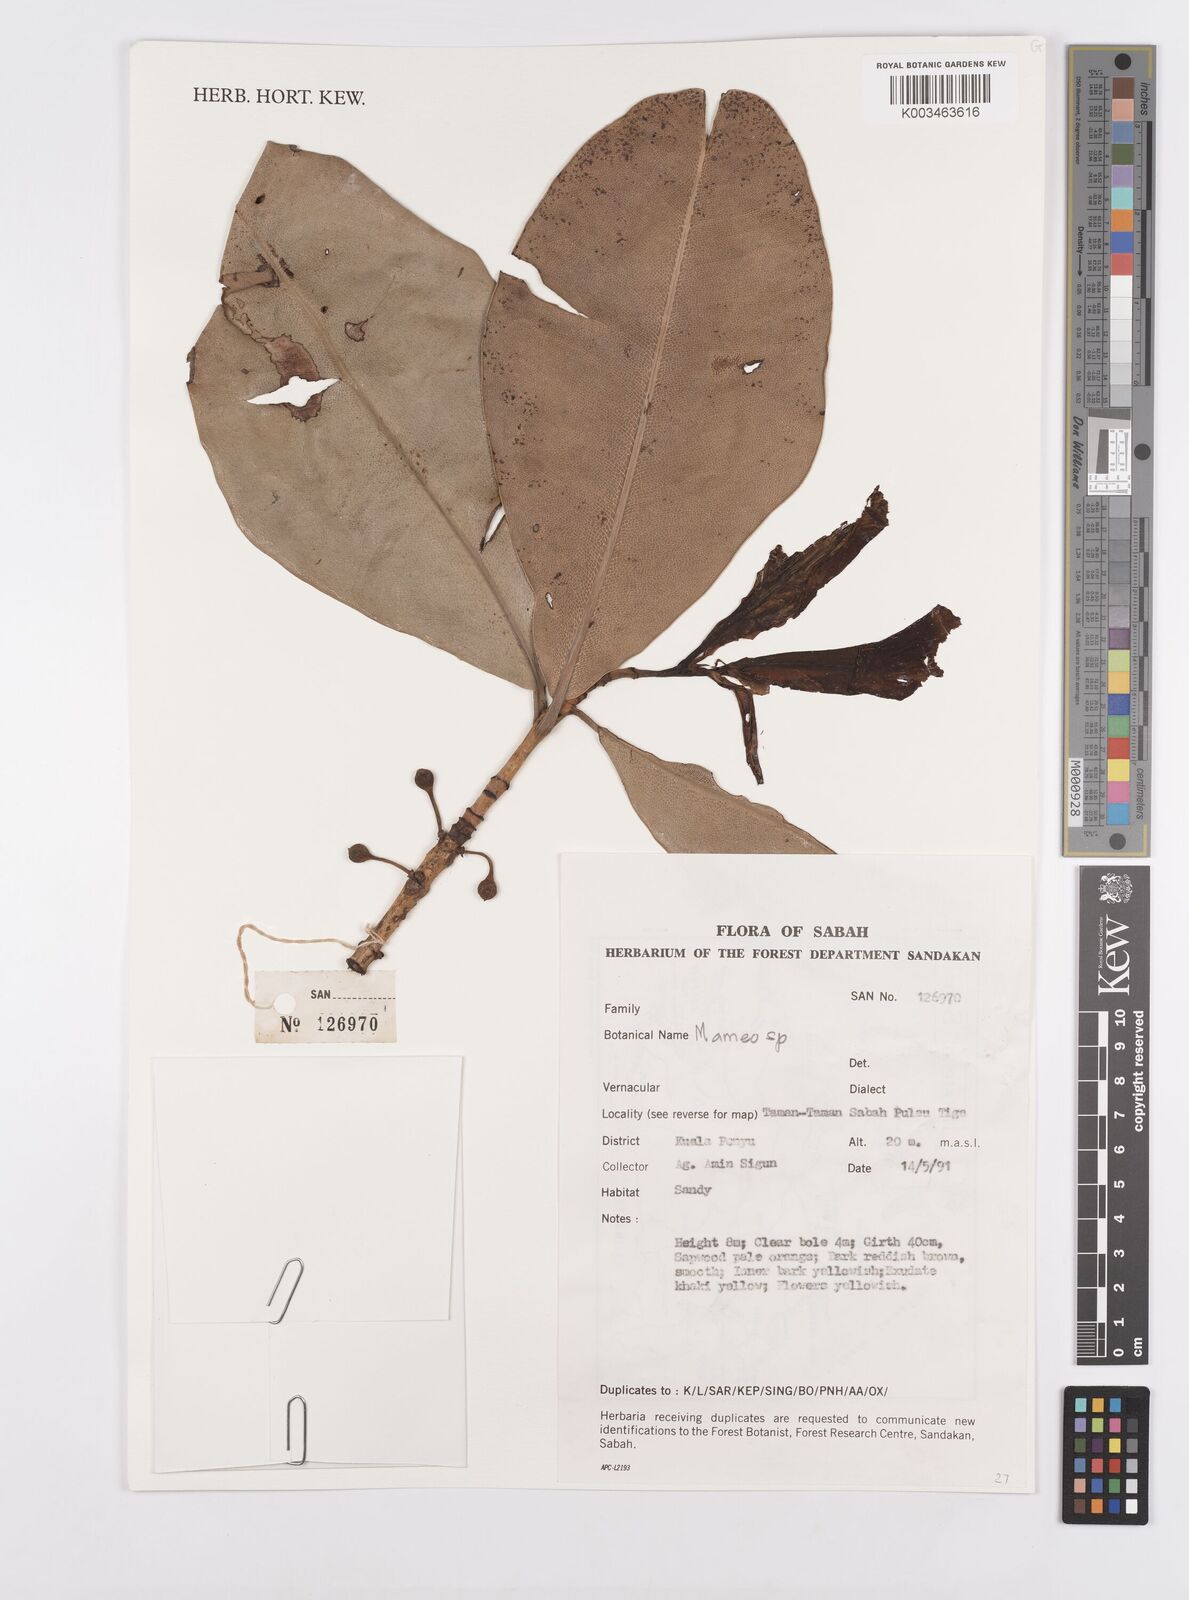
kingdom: Plantae
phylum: Tracheophyta
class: Magnoliopsida
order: Malpighiales
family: Calophyllaceae
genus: Mammea
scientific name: Mammea
